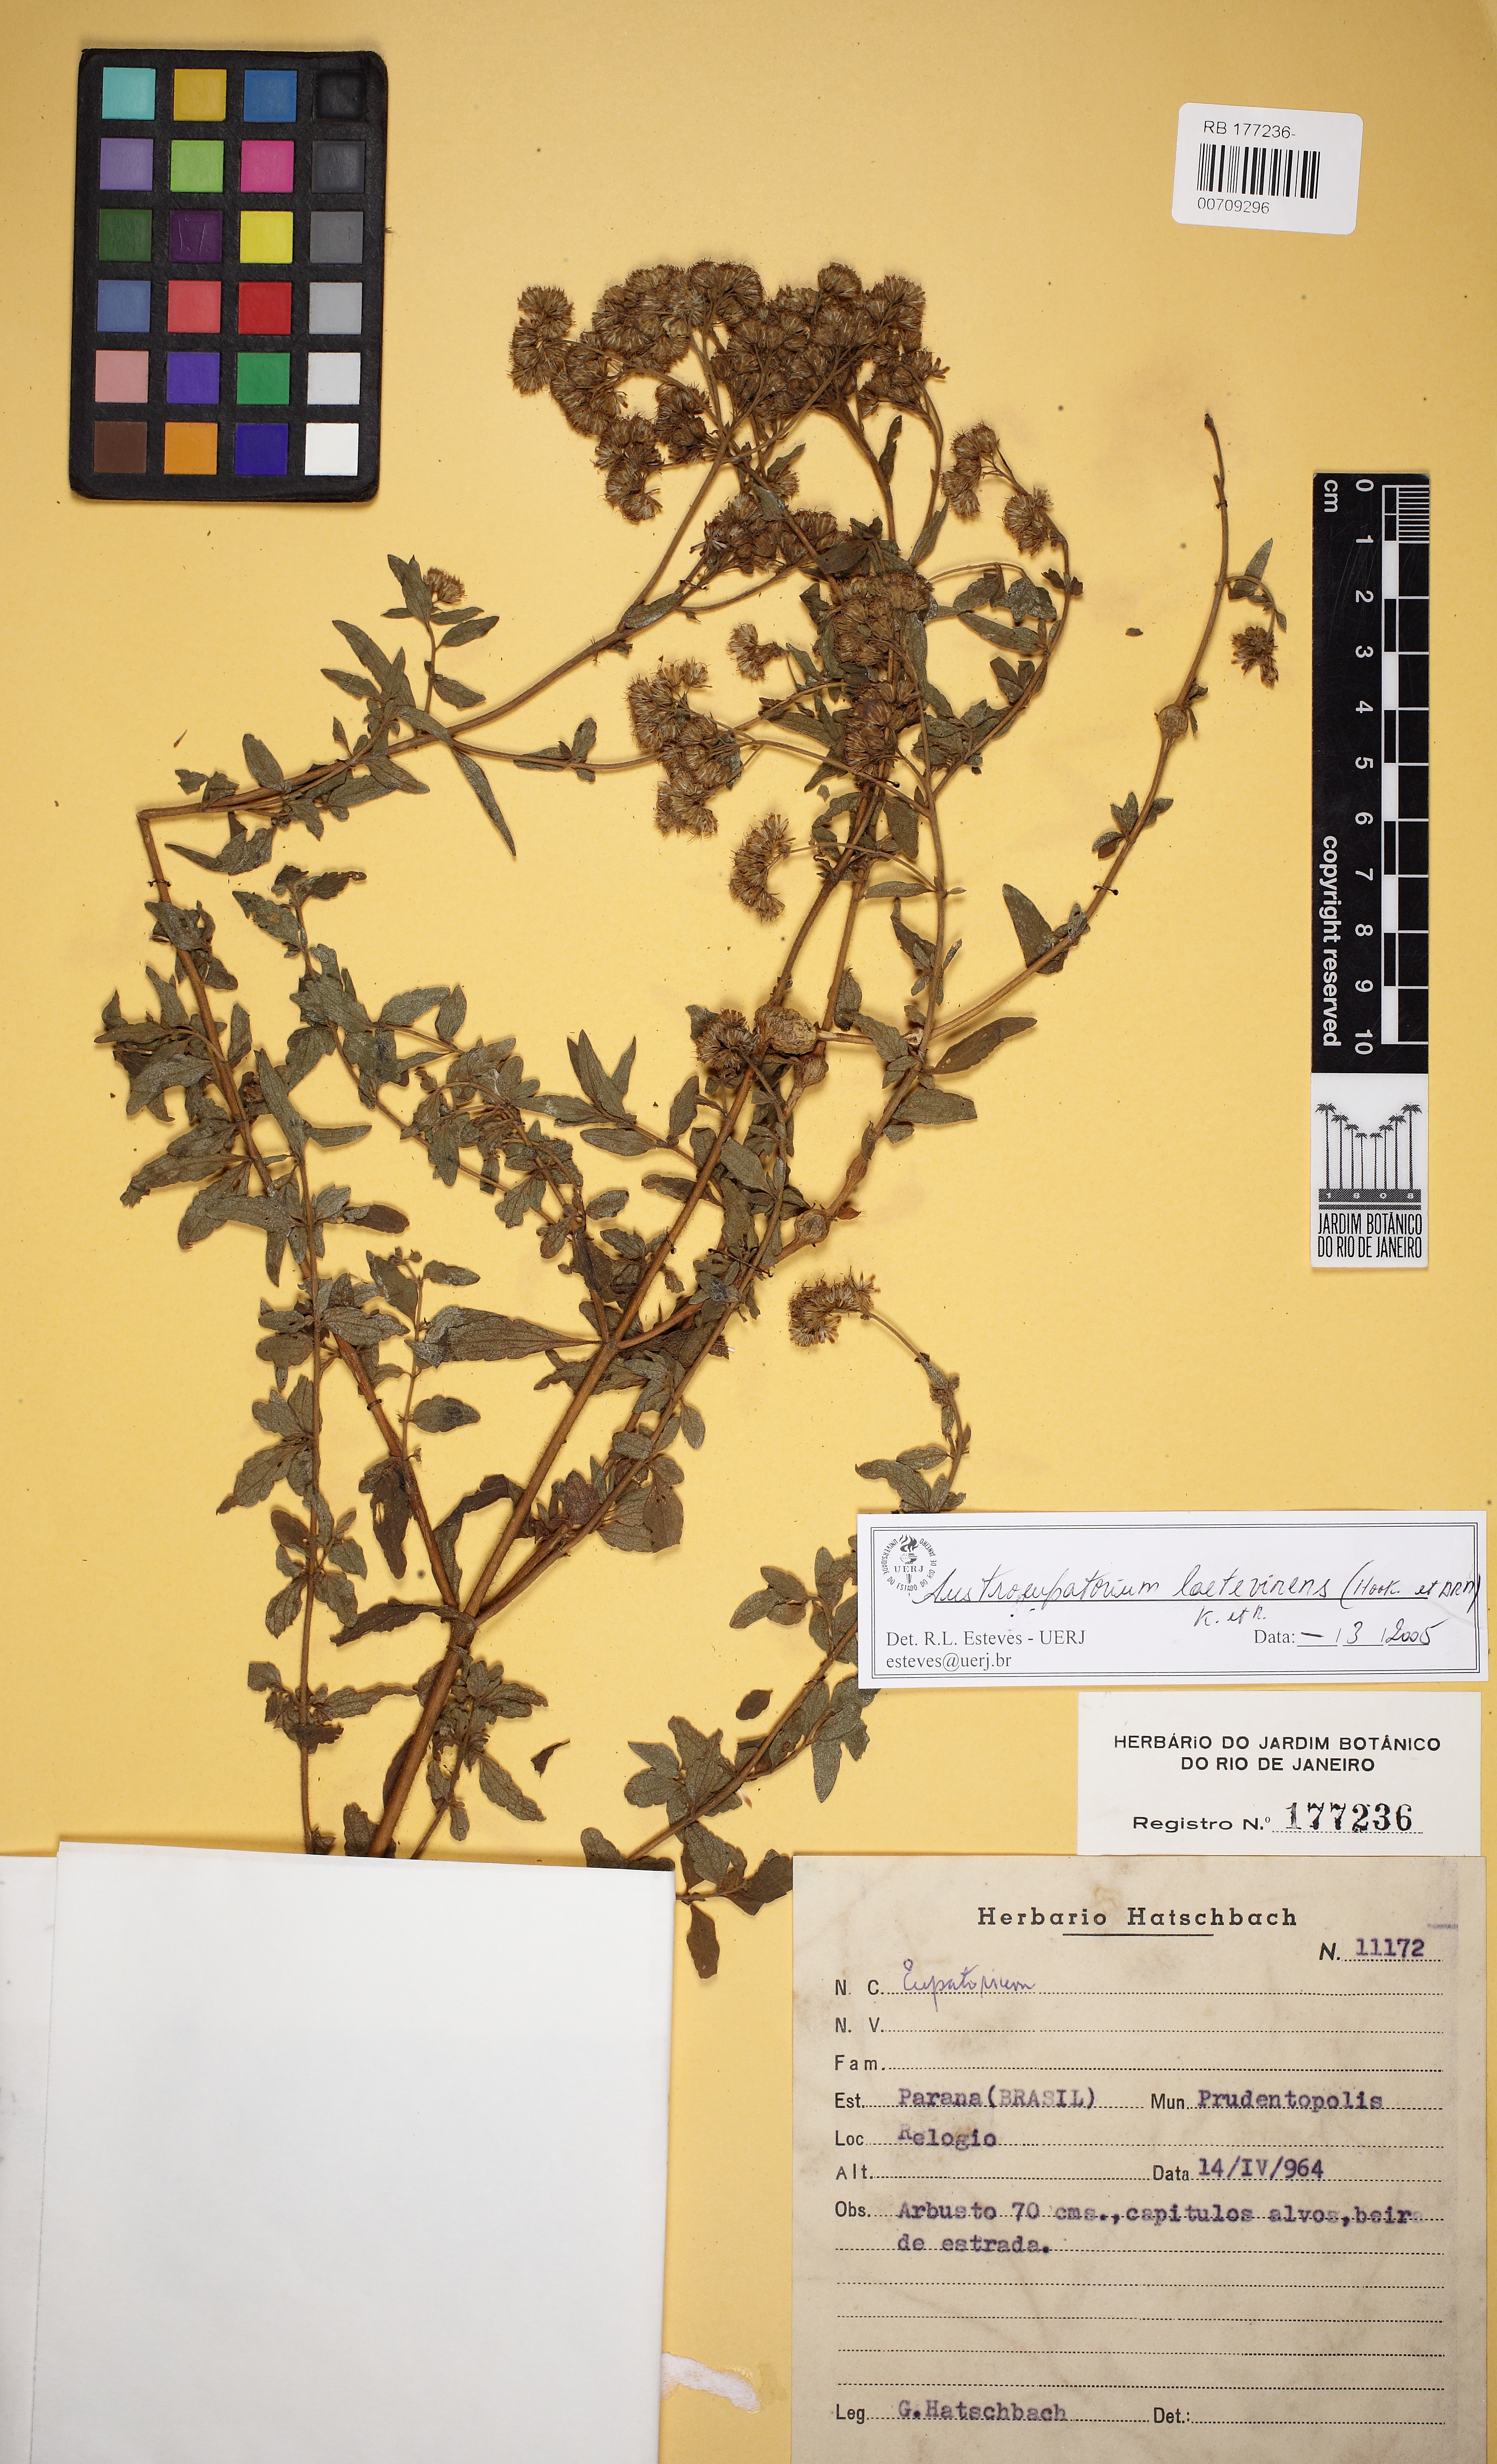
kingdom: Plantae
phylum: Tracheophyta
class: Magnoliopsida
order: Asterales
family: Asteraceae
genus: Austroeupatorium
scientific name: Austroeupatorium laetevirens
